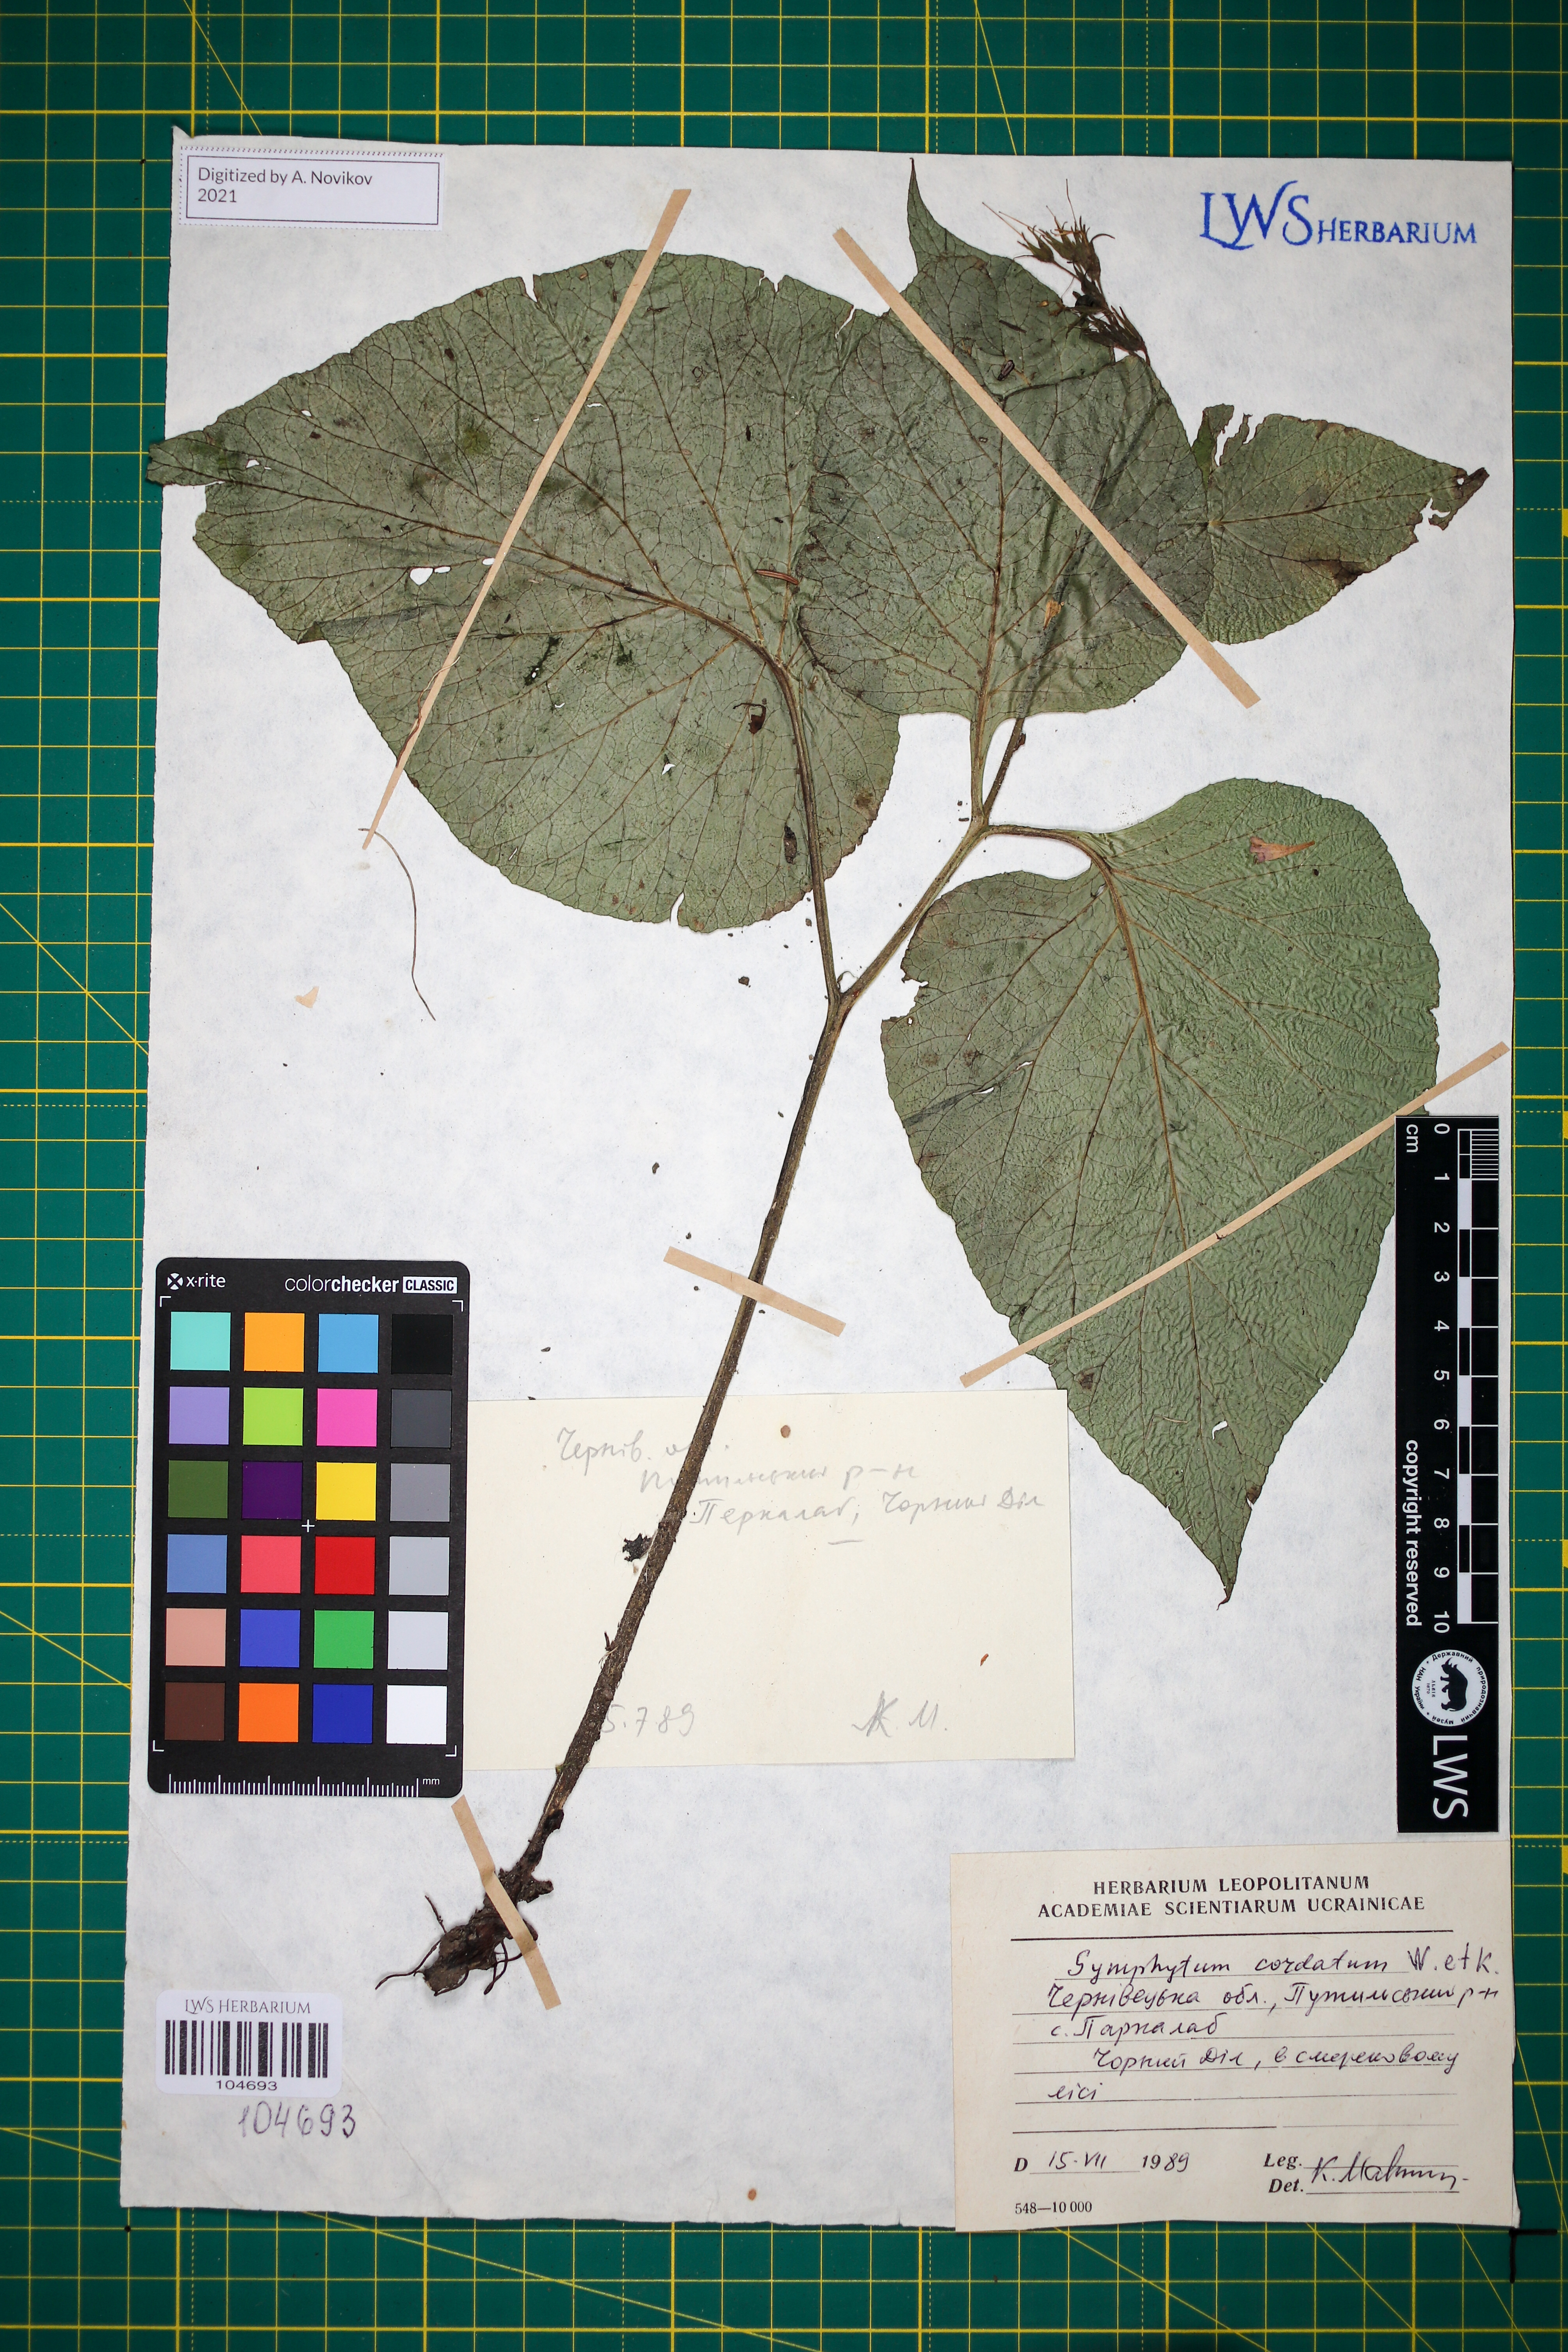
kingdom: Plantae
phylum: Tracheophyta
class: Magnoliopsida
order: Boraginales
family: Boraginaceae
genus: Symphytum
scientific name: Symphytum cordatum
